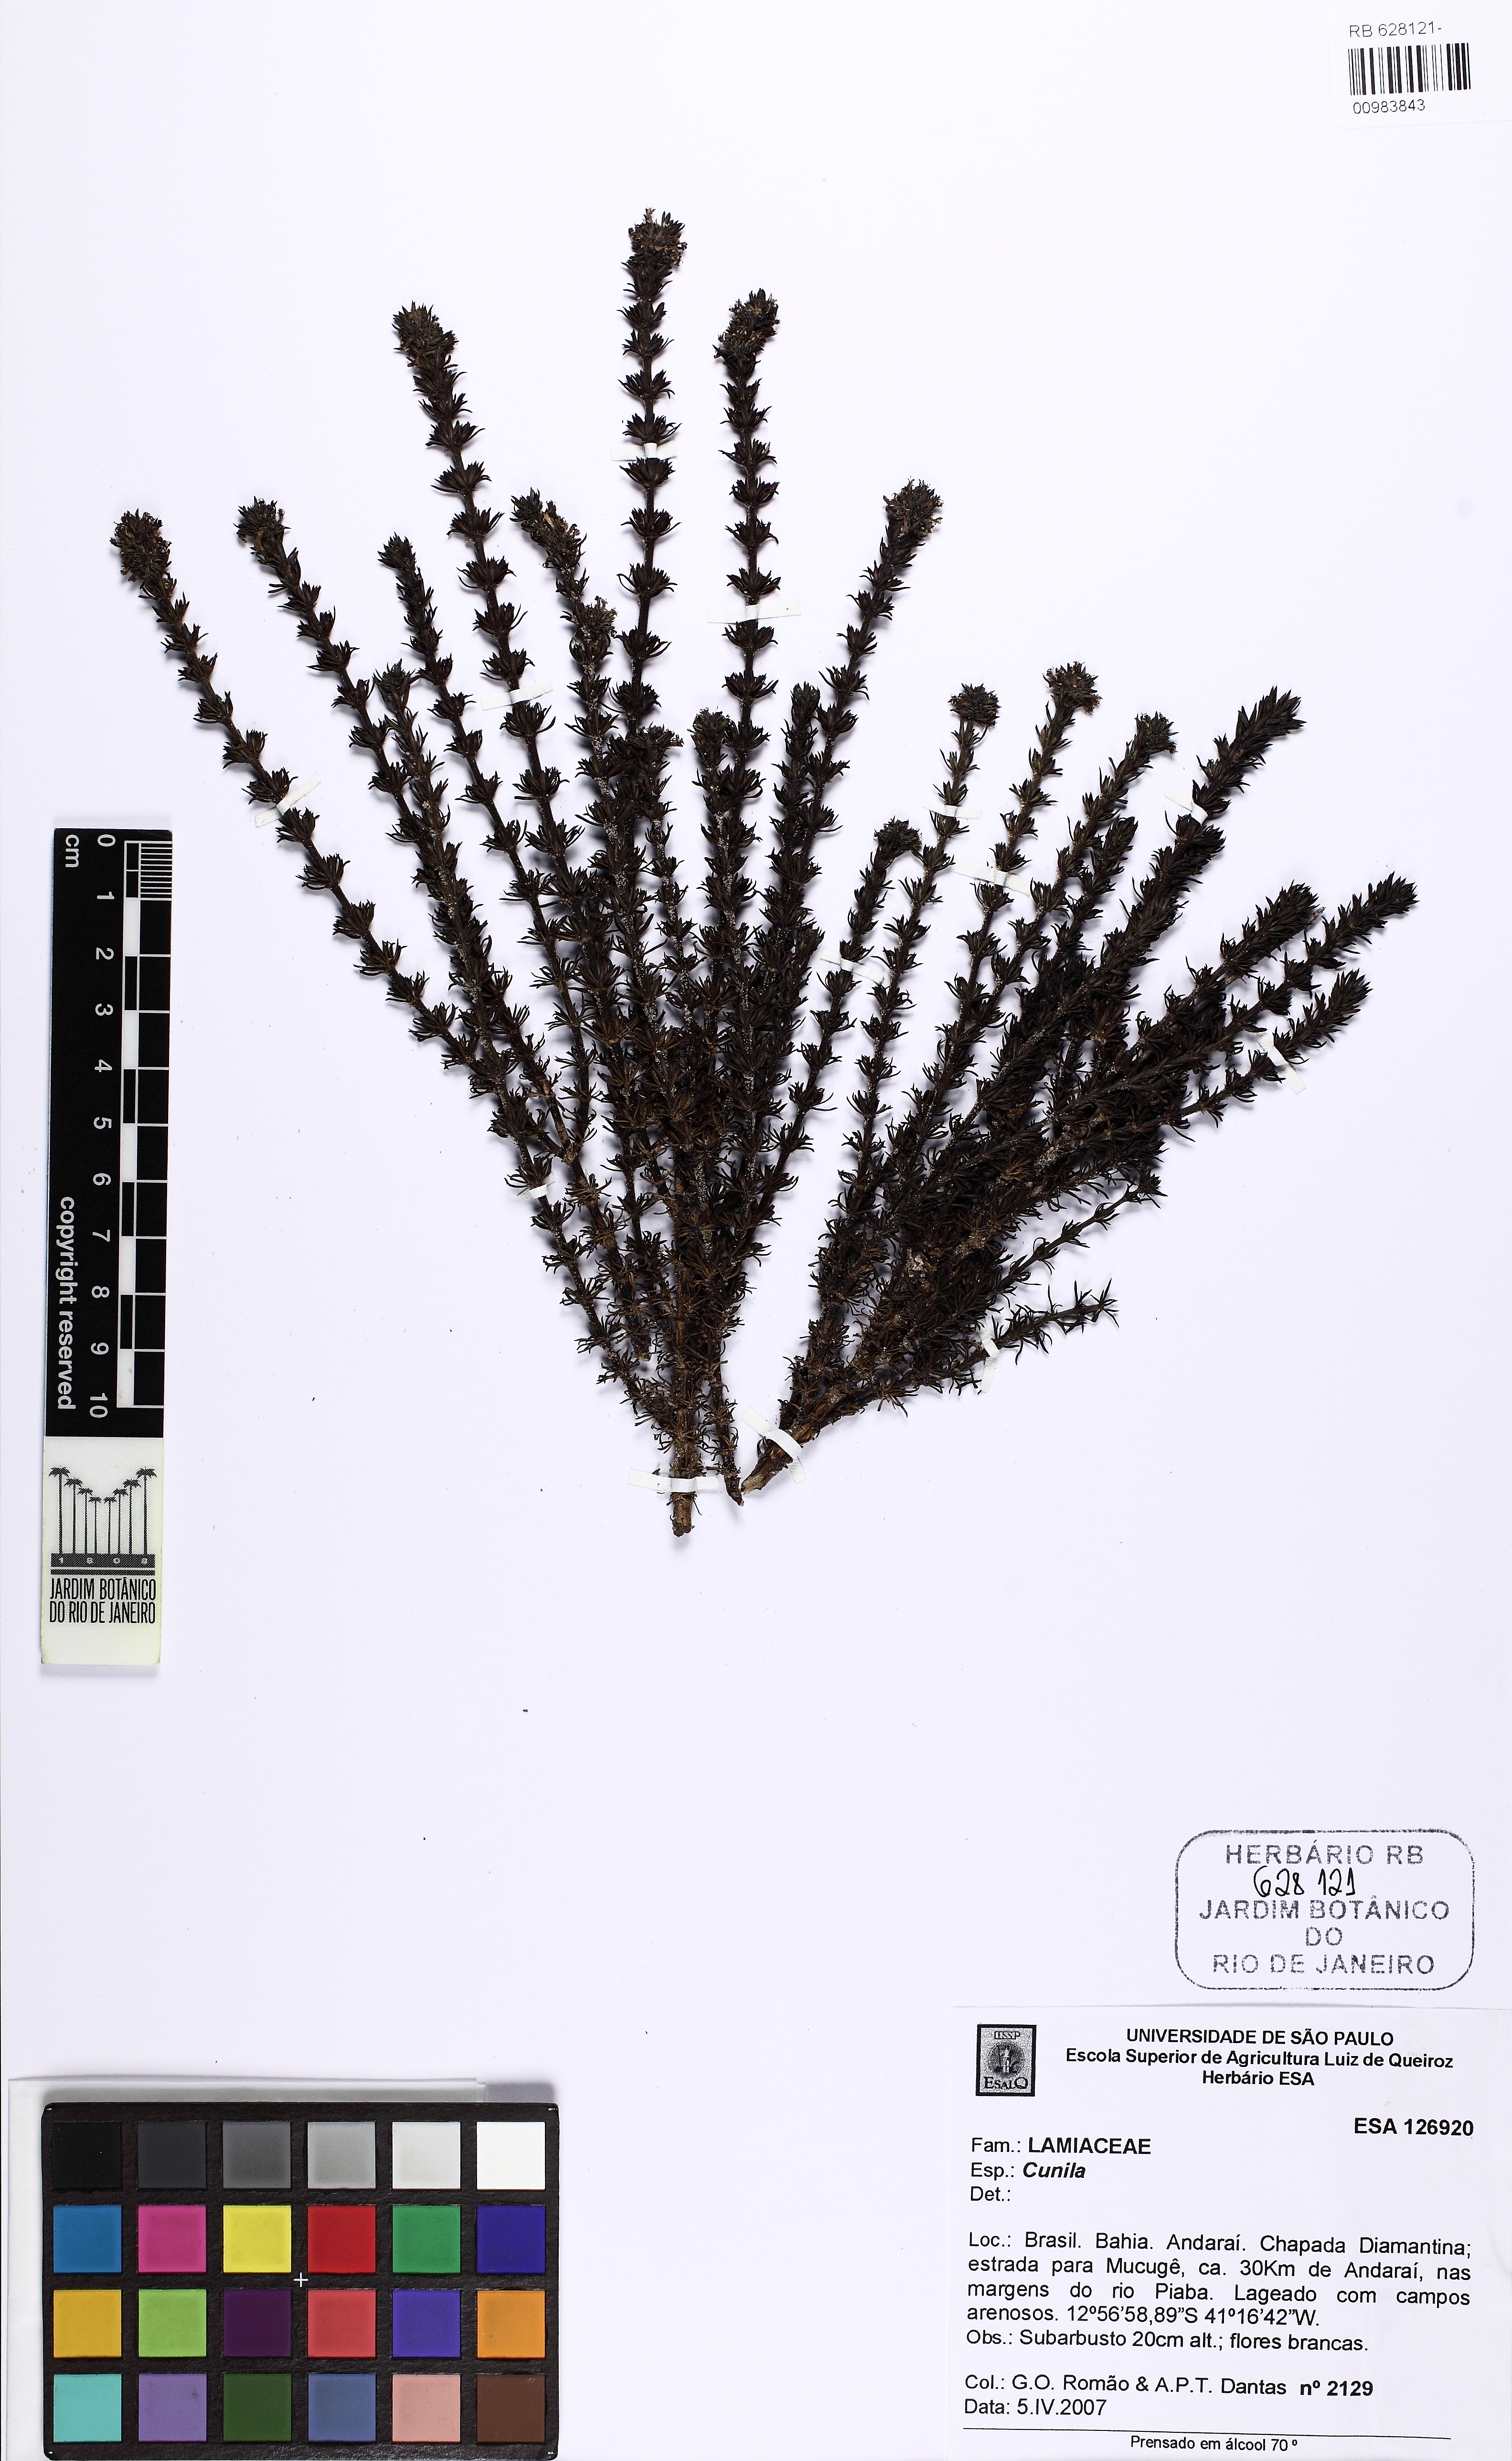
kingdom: Plantae
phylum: Tracheophyta
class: Magnoliopsida
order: Gentianales
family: Rubiaceae
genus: Staelia
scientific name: Staelia
